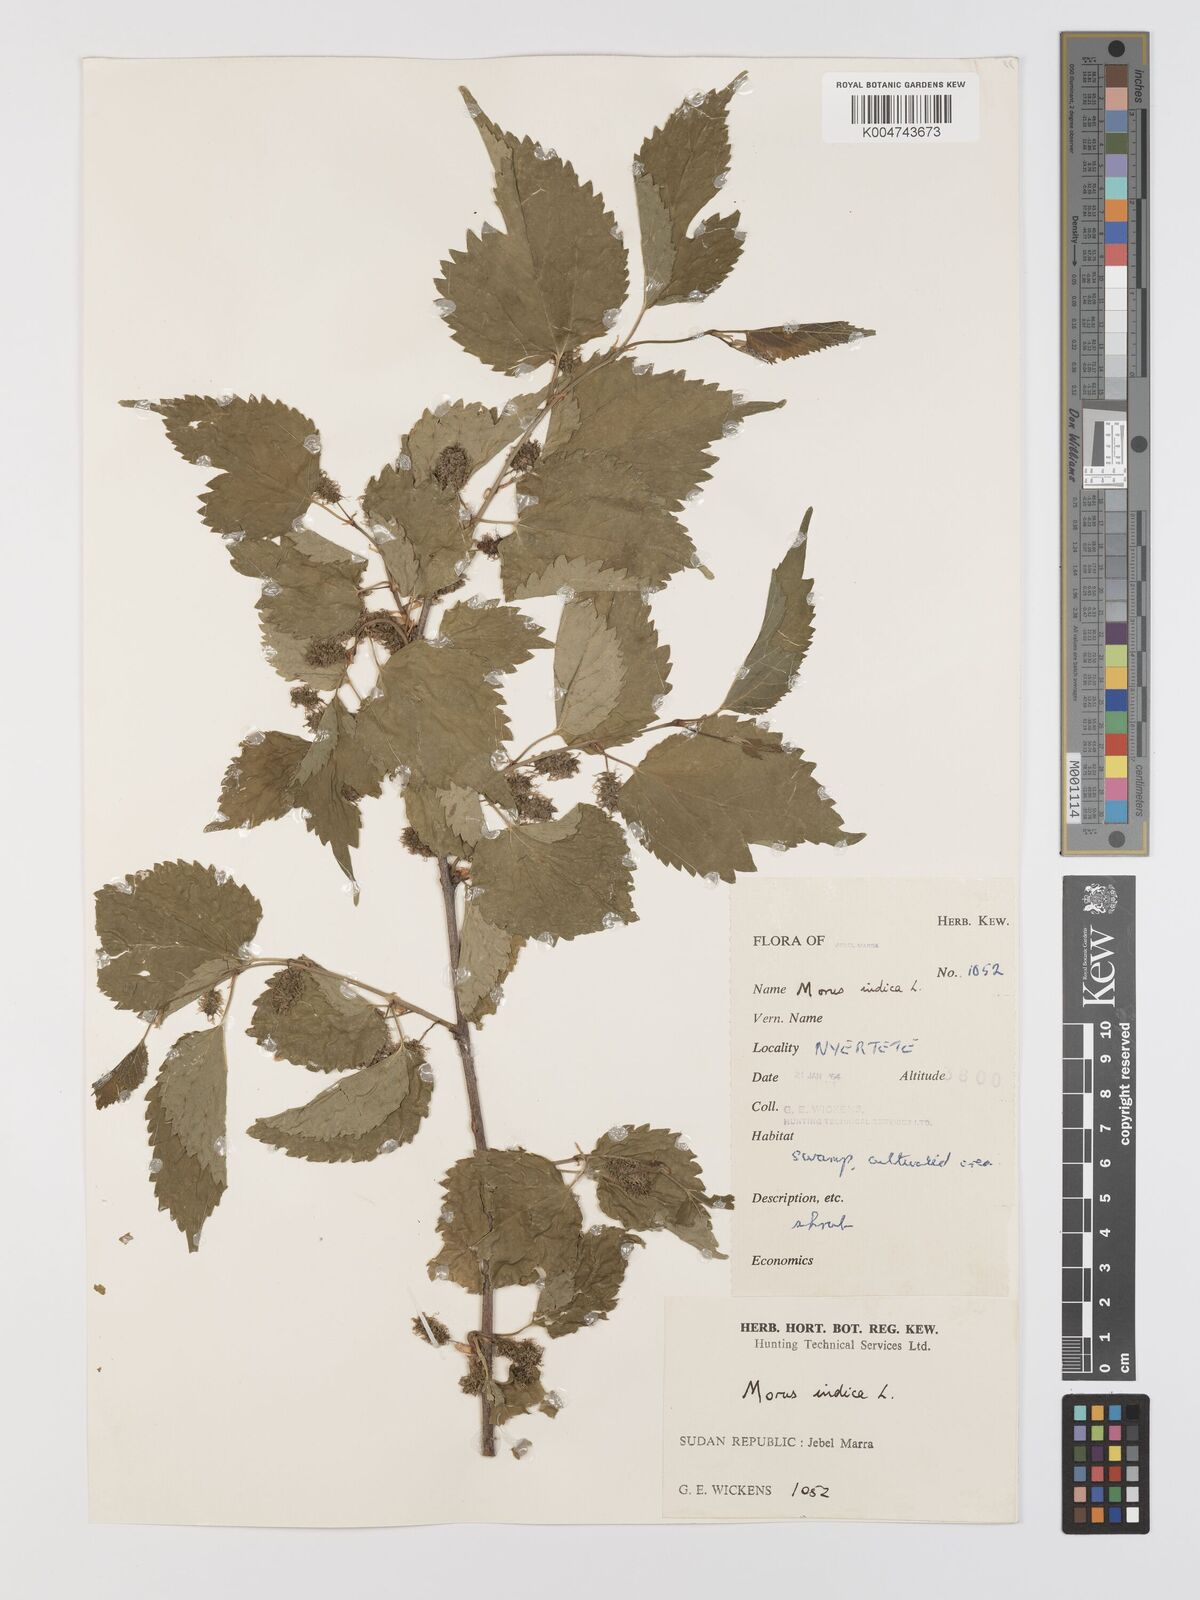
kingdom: Plantae
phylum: Tracheophyta
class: Magnoliopsida
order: Rosales
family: Moraceae
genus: Morus
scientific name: Morus indica
